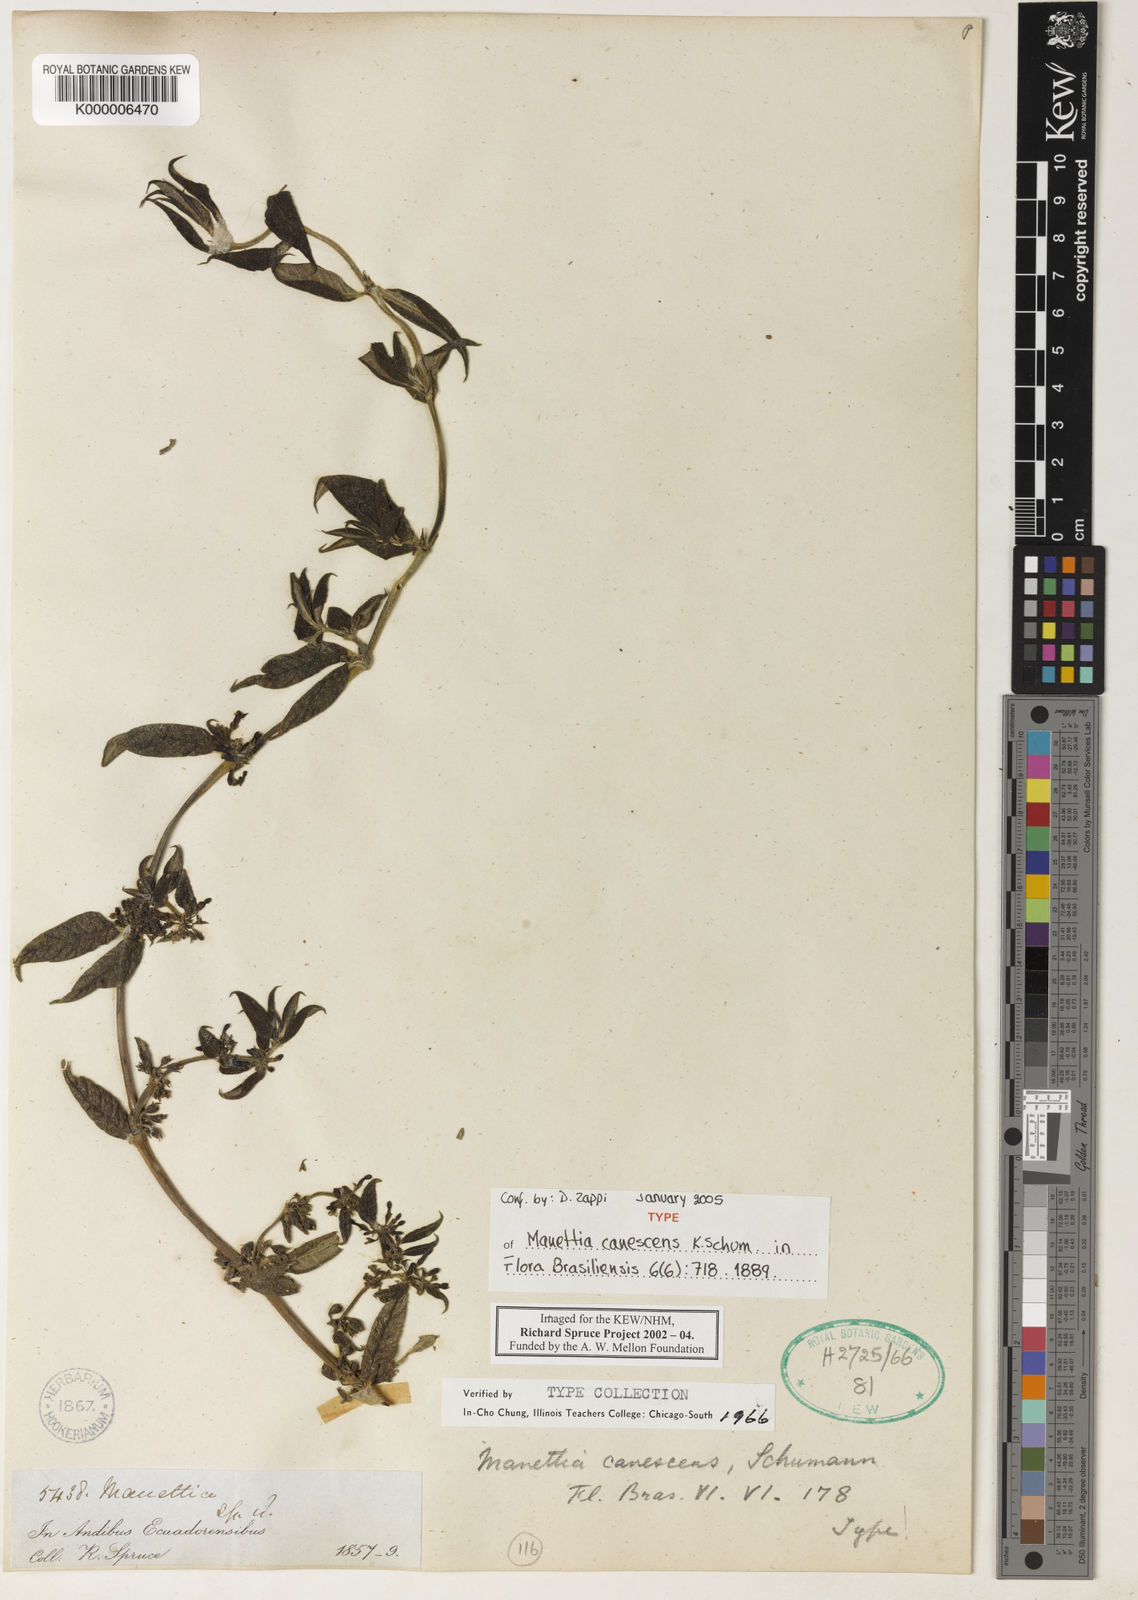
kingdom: Plantae
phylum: Tracheophyta
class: Magnoliopsida
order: Gentianales
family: Rubiaceae
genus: Manettia
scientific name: Manettia canescens
